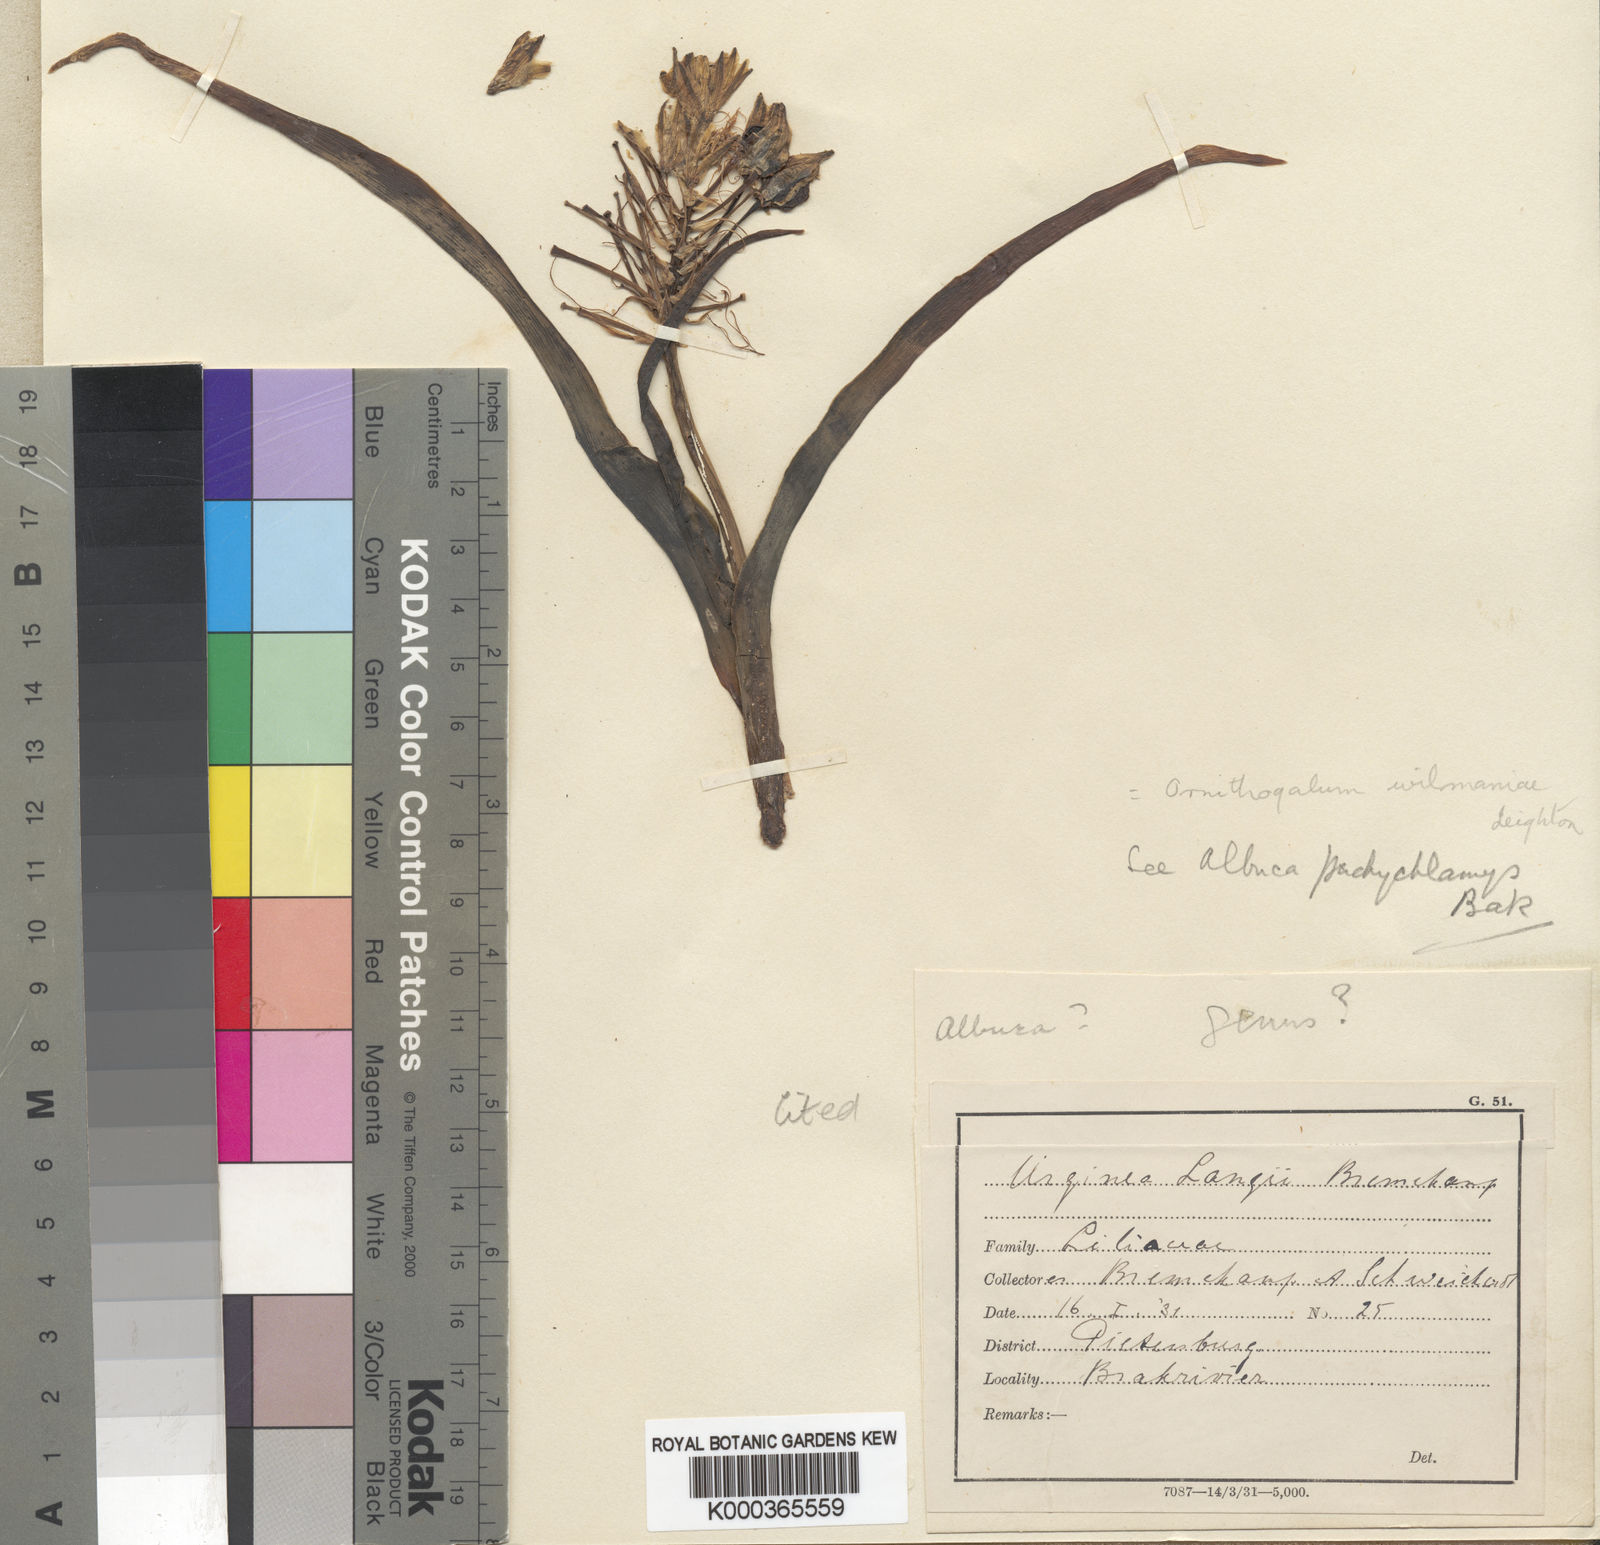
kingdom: Plantae
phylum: Tracheophyta
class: Liliopsida
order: Asparagales
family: Asparagaceae
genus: Albuca
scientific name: Albuca seineri
